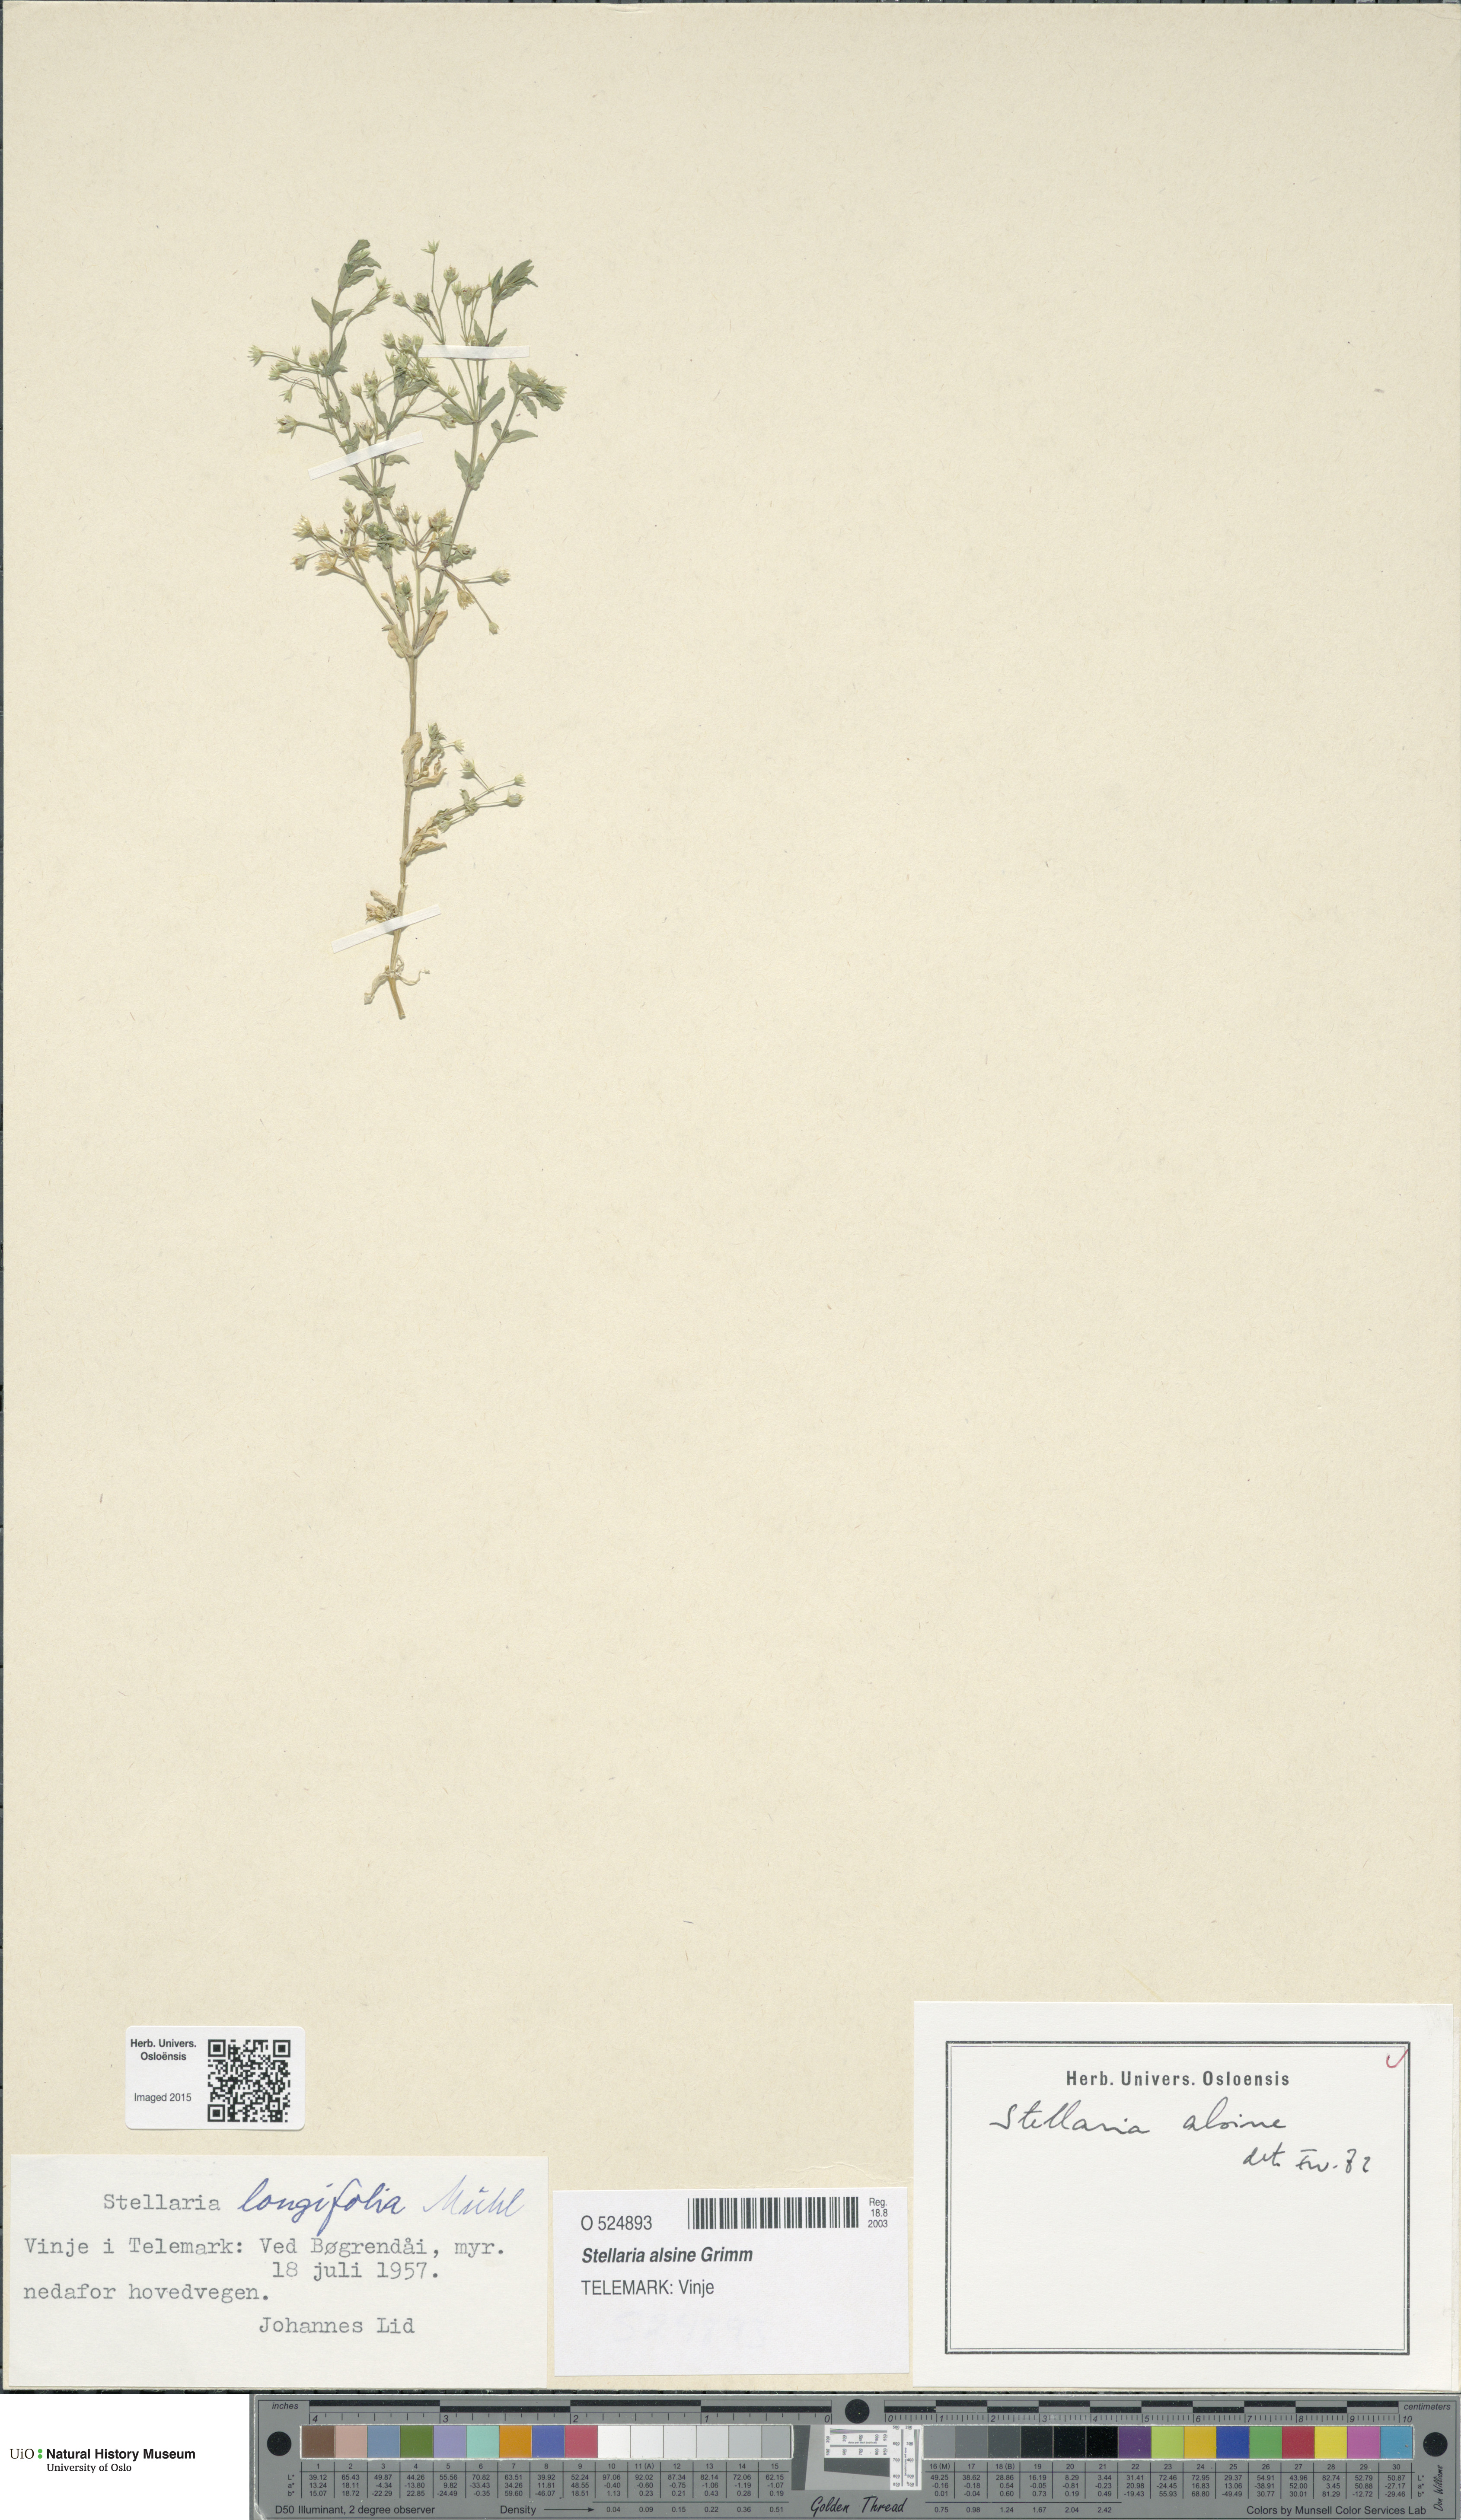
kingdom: Plantae
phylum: Tracheophyta
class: Magnoliopsida
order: Caryophyllales
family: Caryophyllaceae
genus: Stellaria
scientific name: Stellaria alsine
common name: Bog stitchwort
